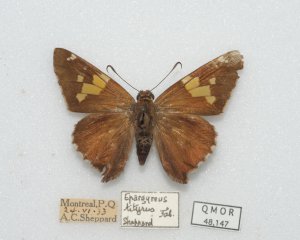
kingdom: Animalia
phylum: Arthropoda
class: Insecta
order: Lepidoptera
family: Hesperiidae
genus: Epargyreus
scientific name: Epargyreus clarus
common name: Silver-spotted Skipper
